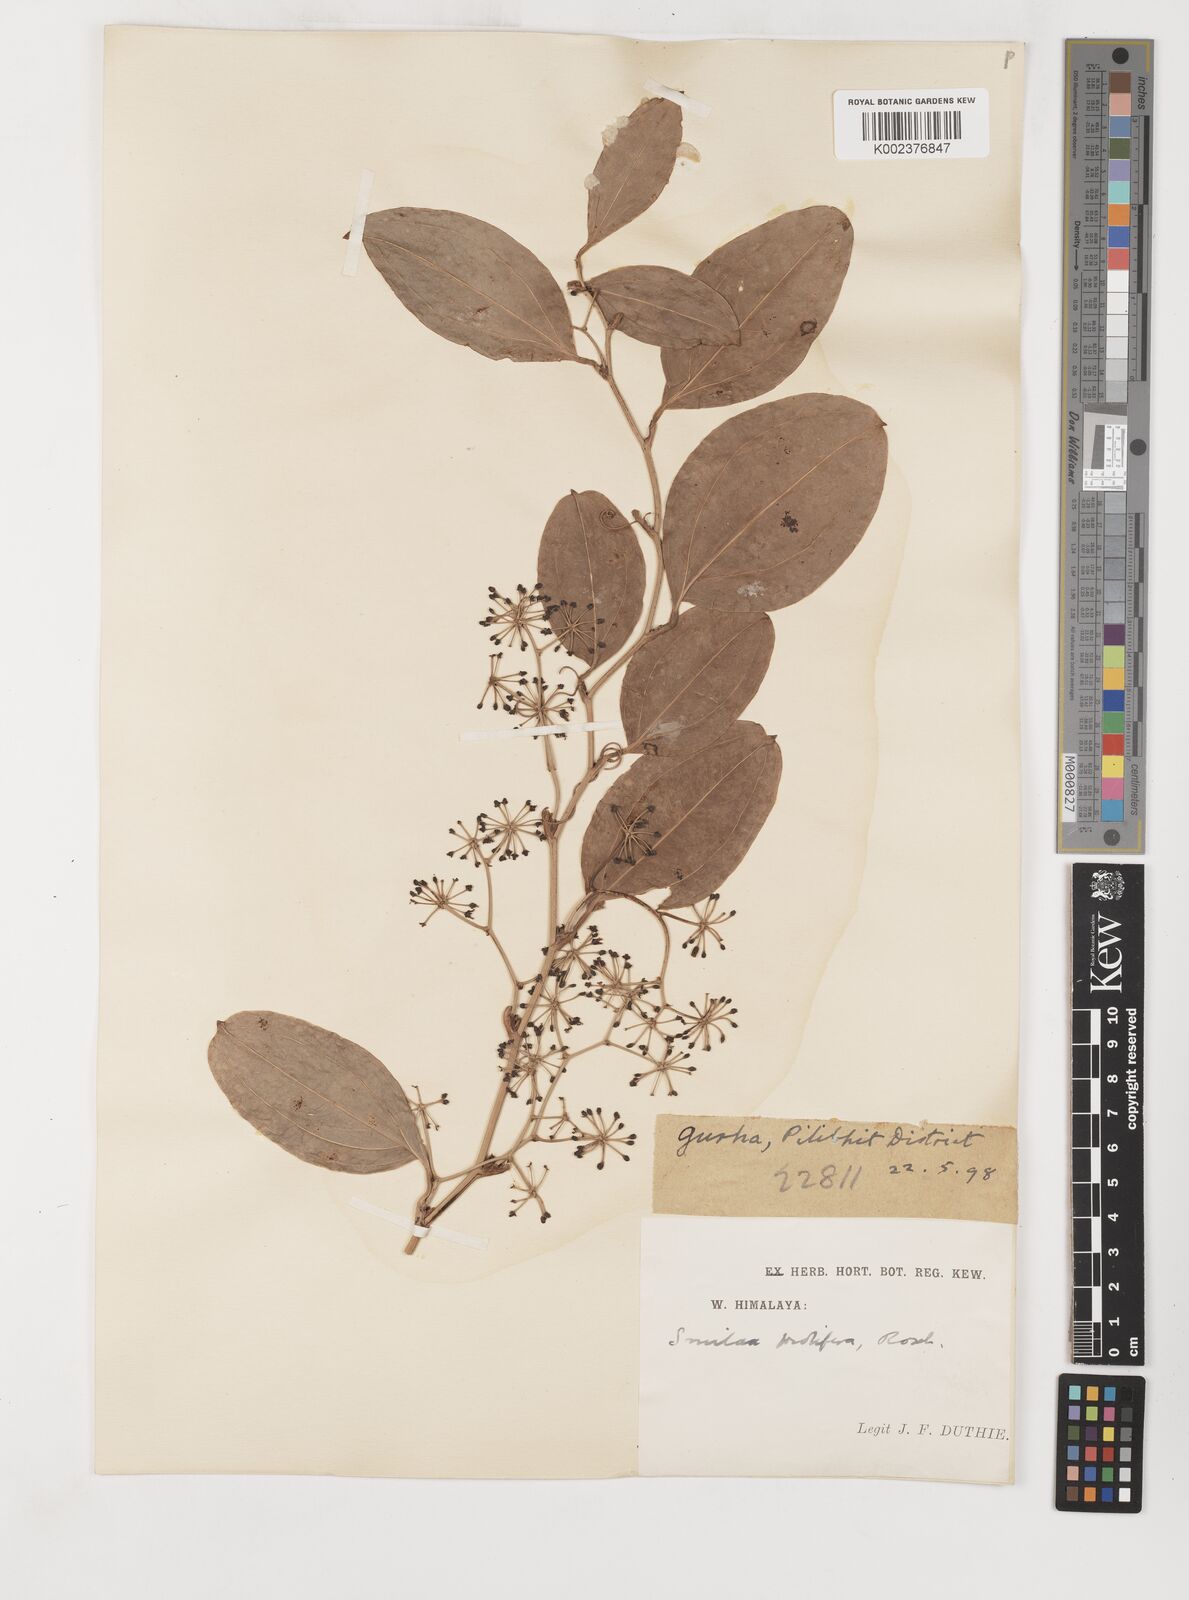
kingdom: Plantae
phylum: Tracheophyta
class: Liliopsida
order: Liliales
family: Smilacaceae
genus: Smilax
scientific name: Smilax prolifera
